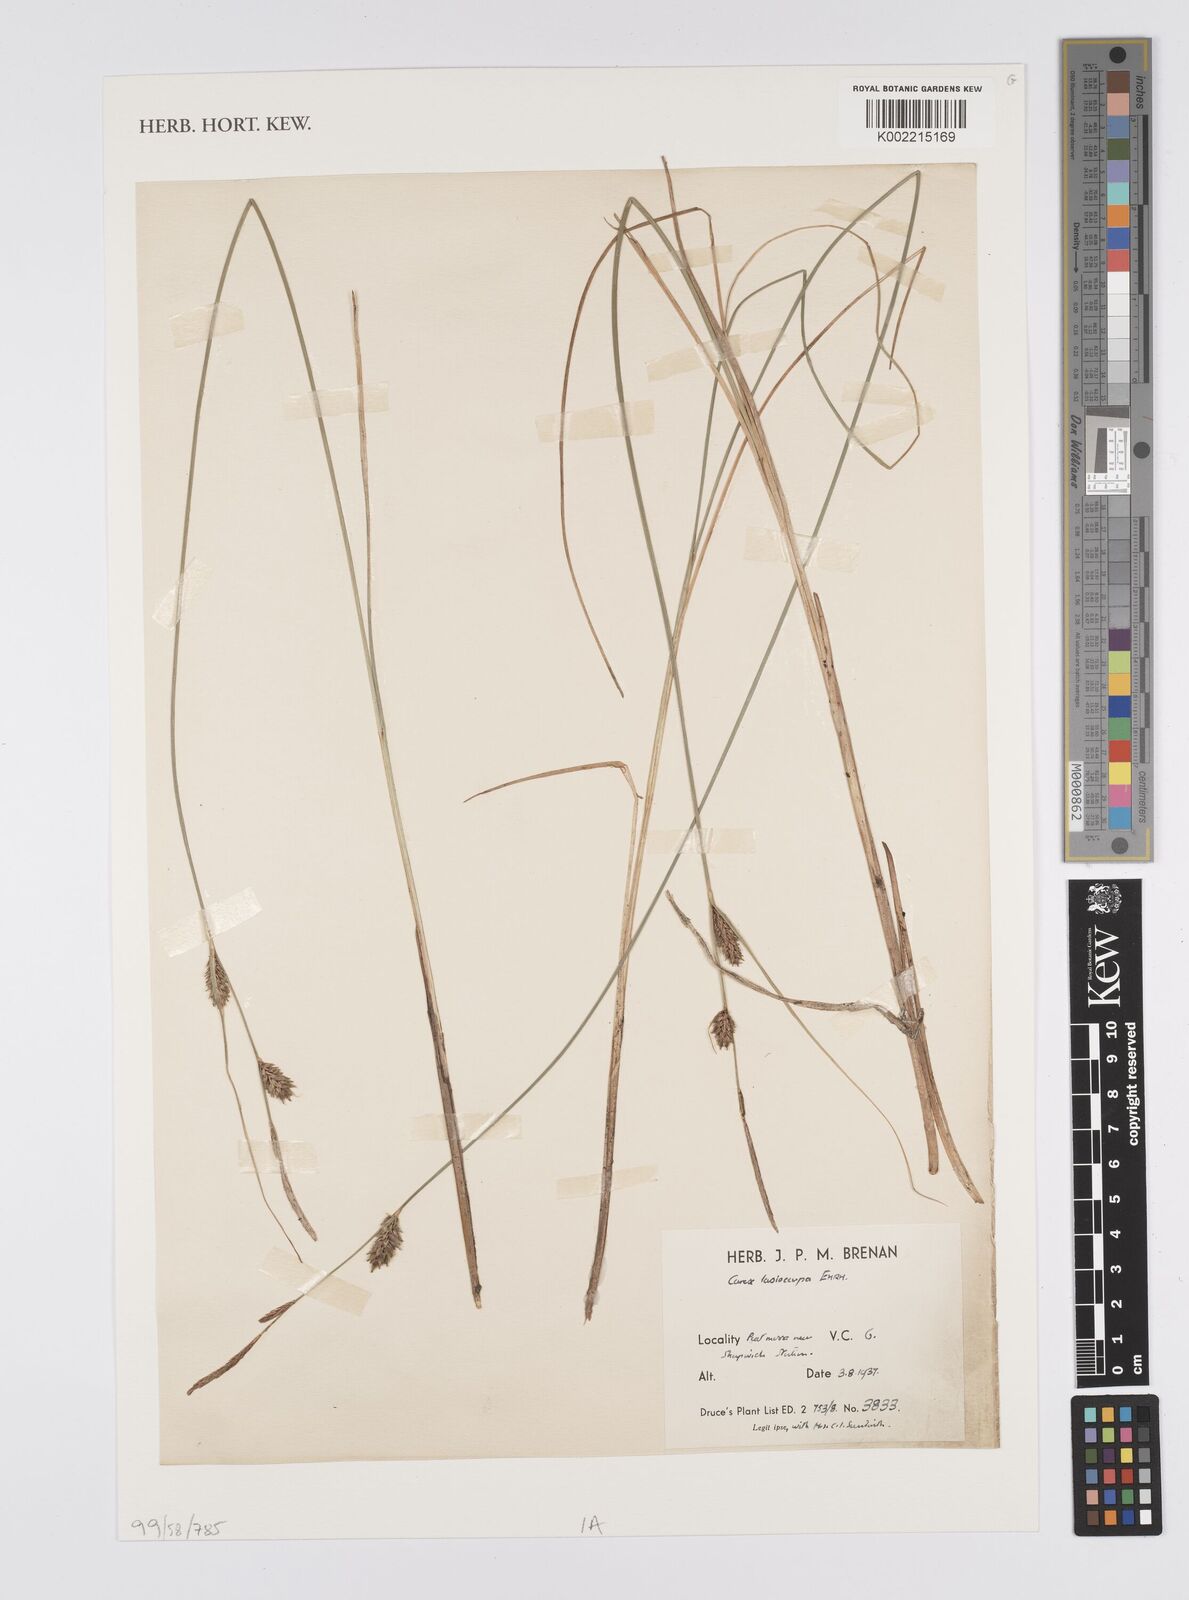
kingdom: Plantae
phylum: Tracheophyta
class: Liliopsida
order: Poales
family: Cyperaceae
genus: Carex
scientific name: Carex lasiocarpa
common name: Slender sedge
